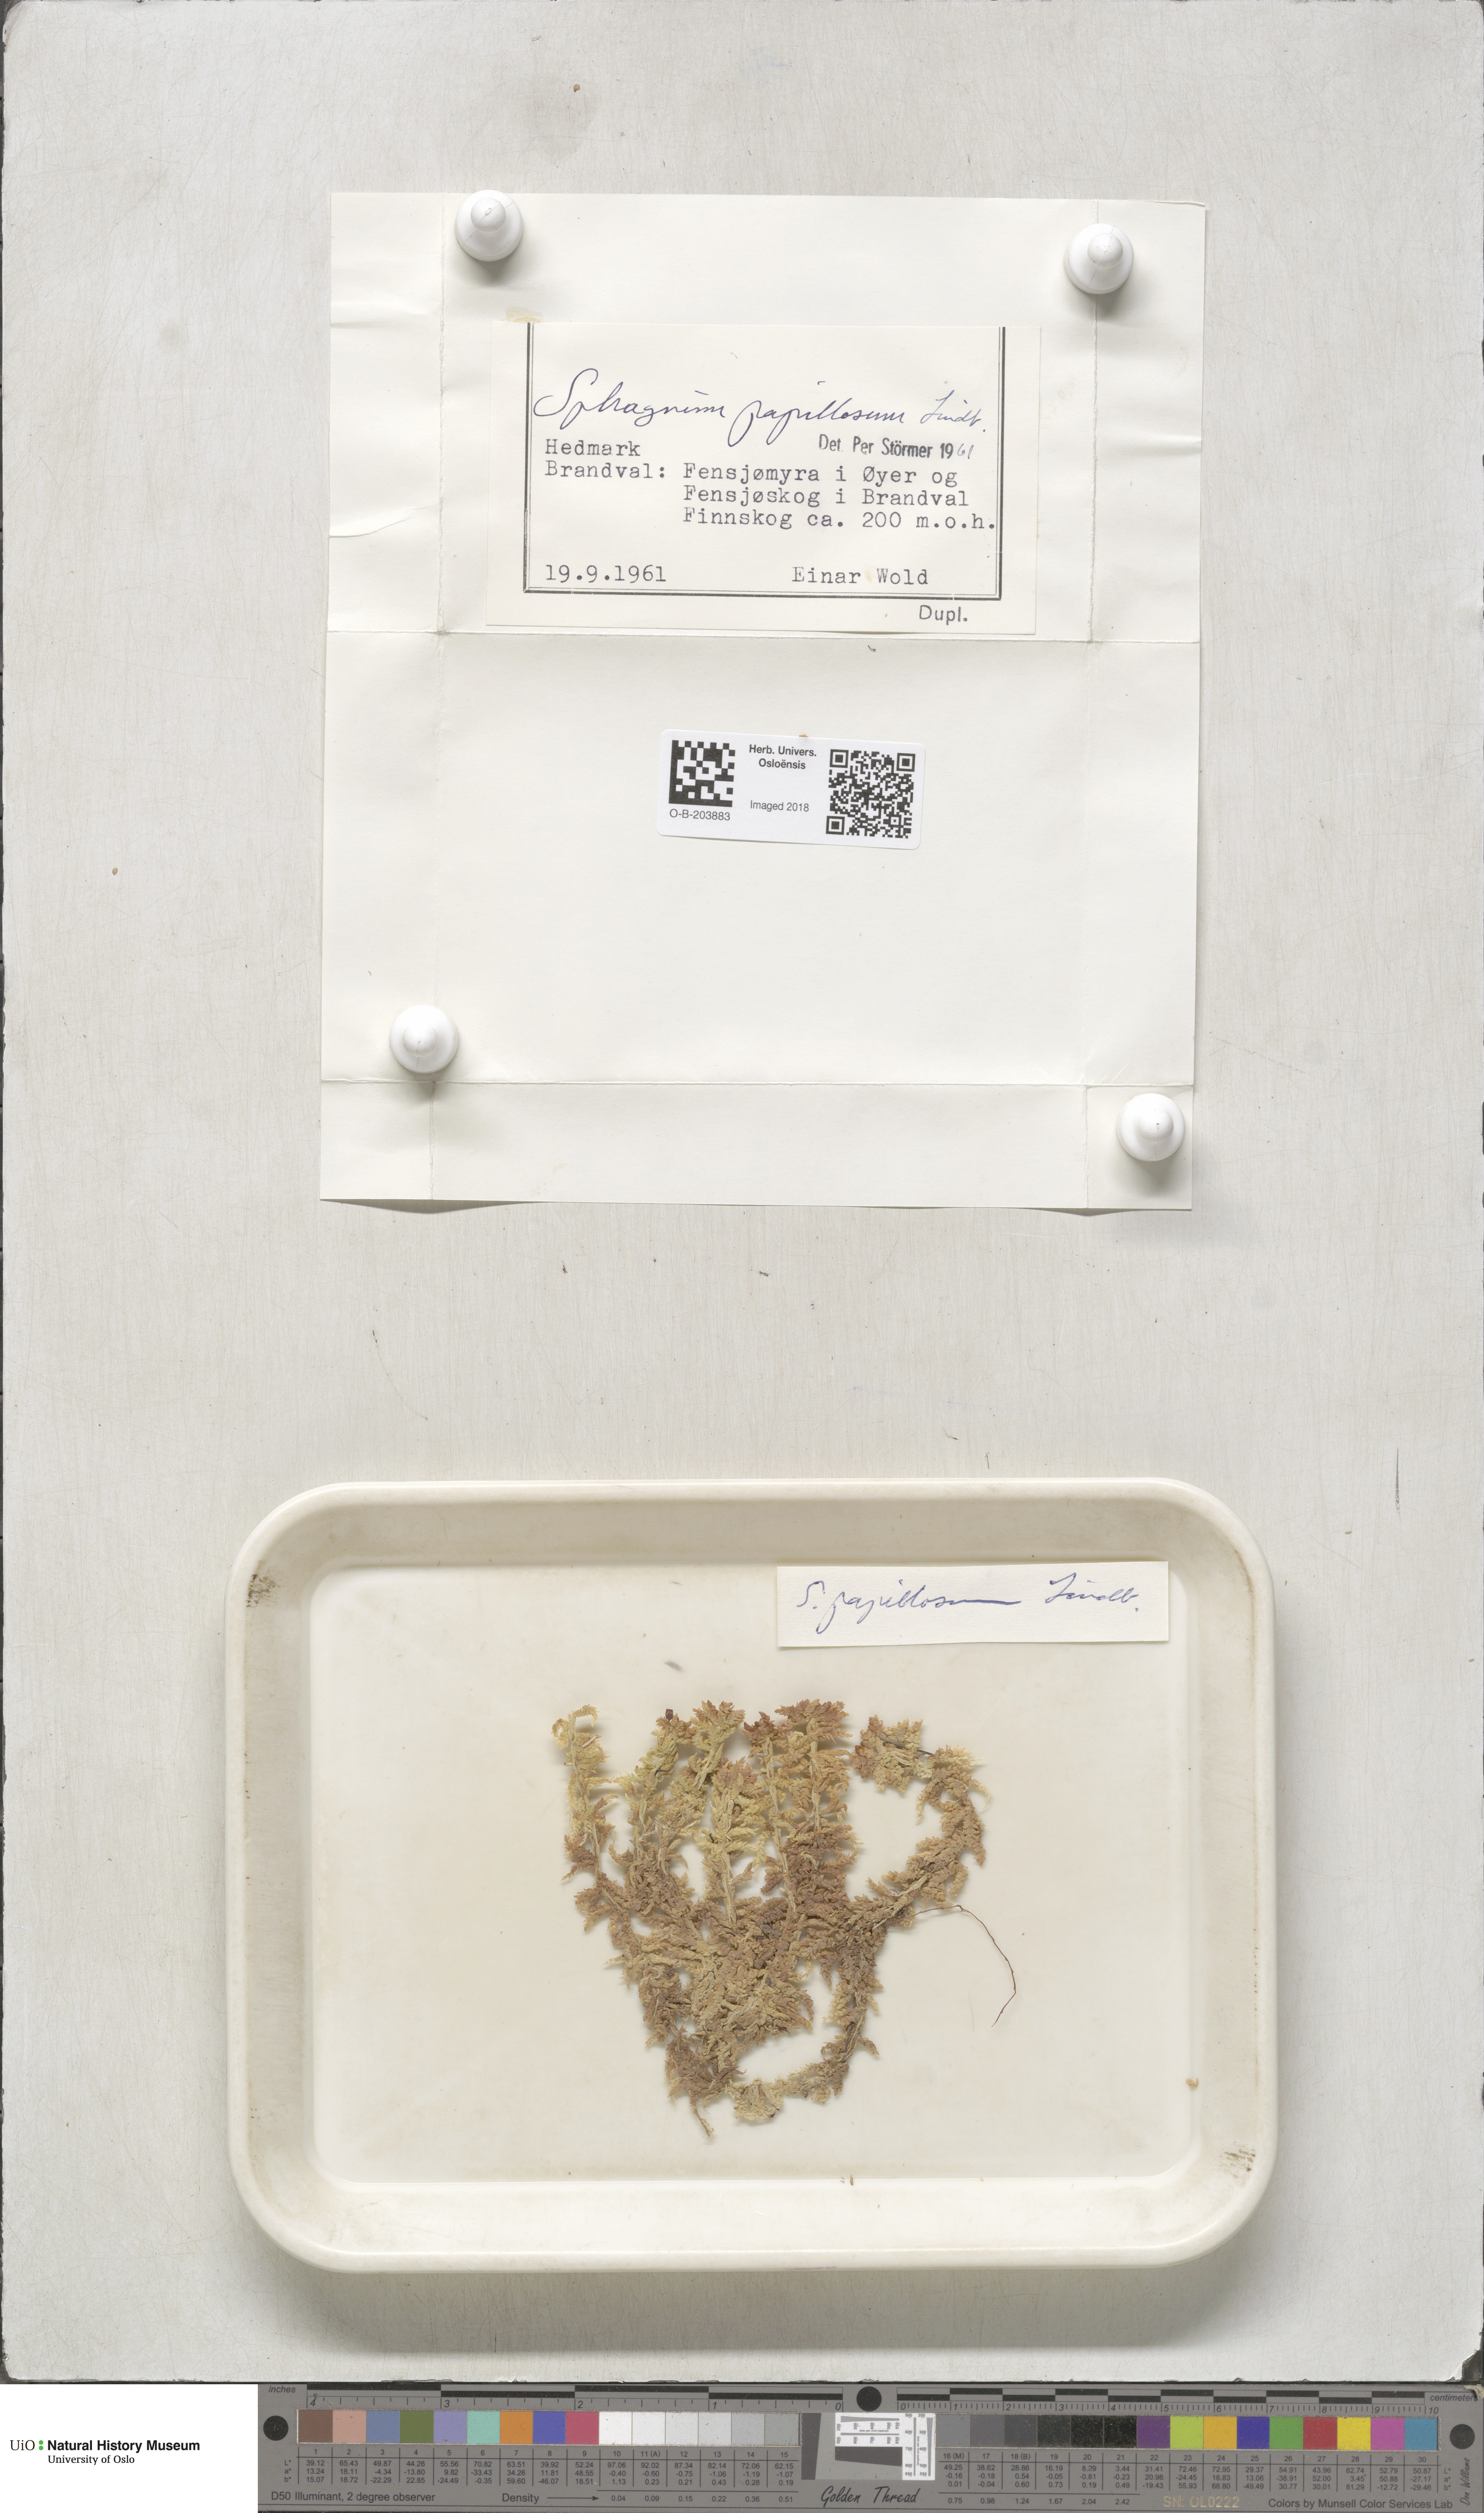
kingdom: Plantae
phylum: Bryophyta
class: Sphagnopsida
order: Sphagnales
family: Sphagnaceae
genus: Sphagnum
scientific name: Sphagnum papillosum
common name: Papillose peat moss
